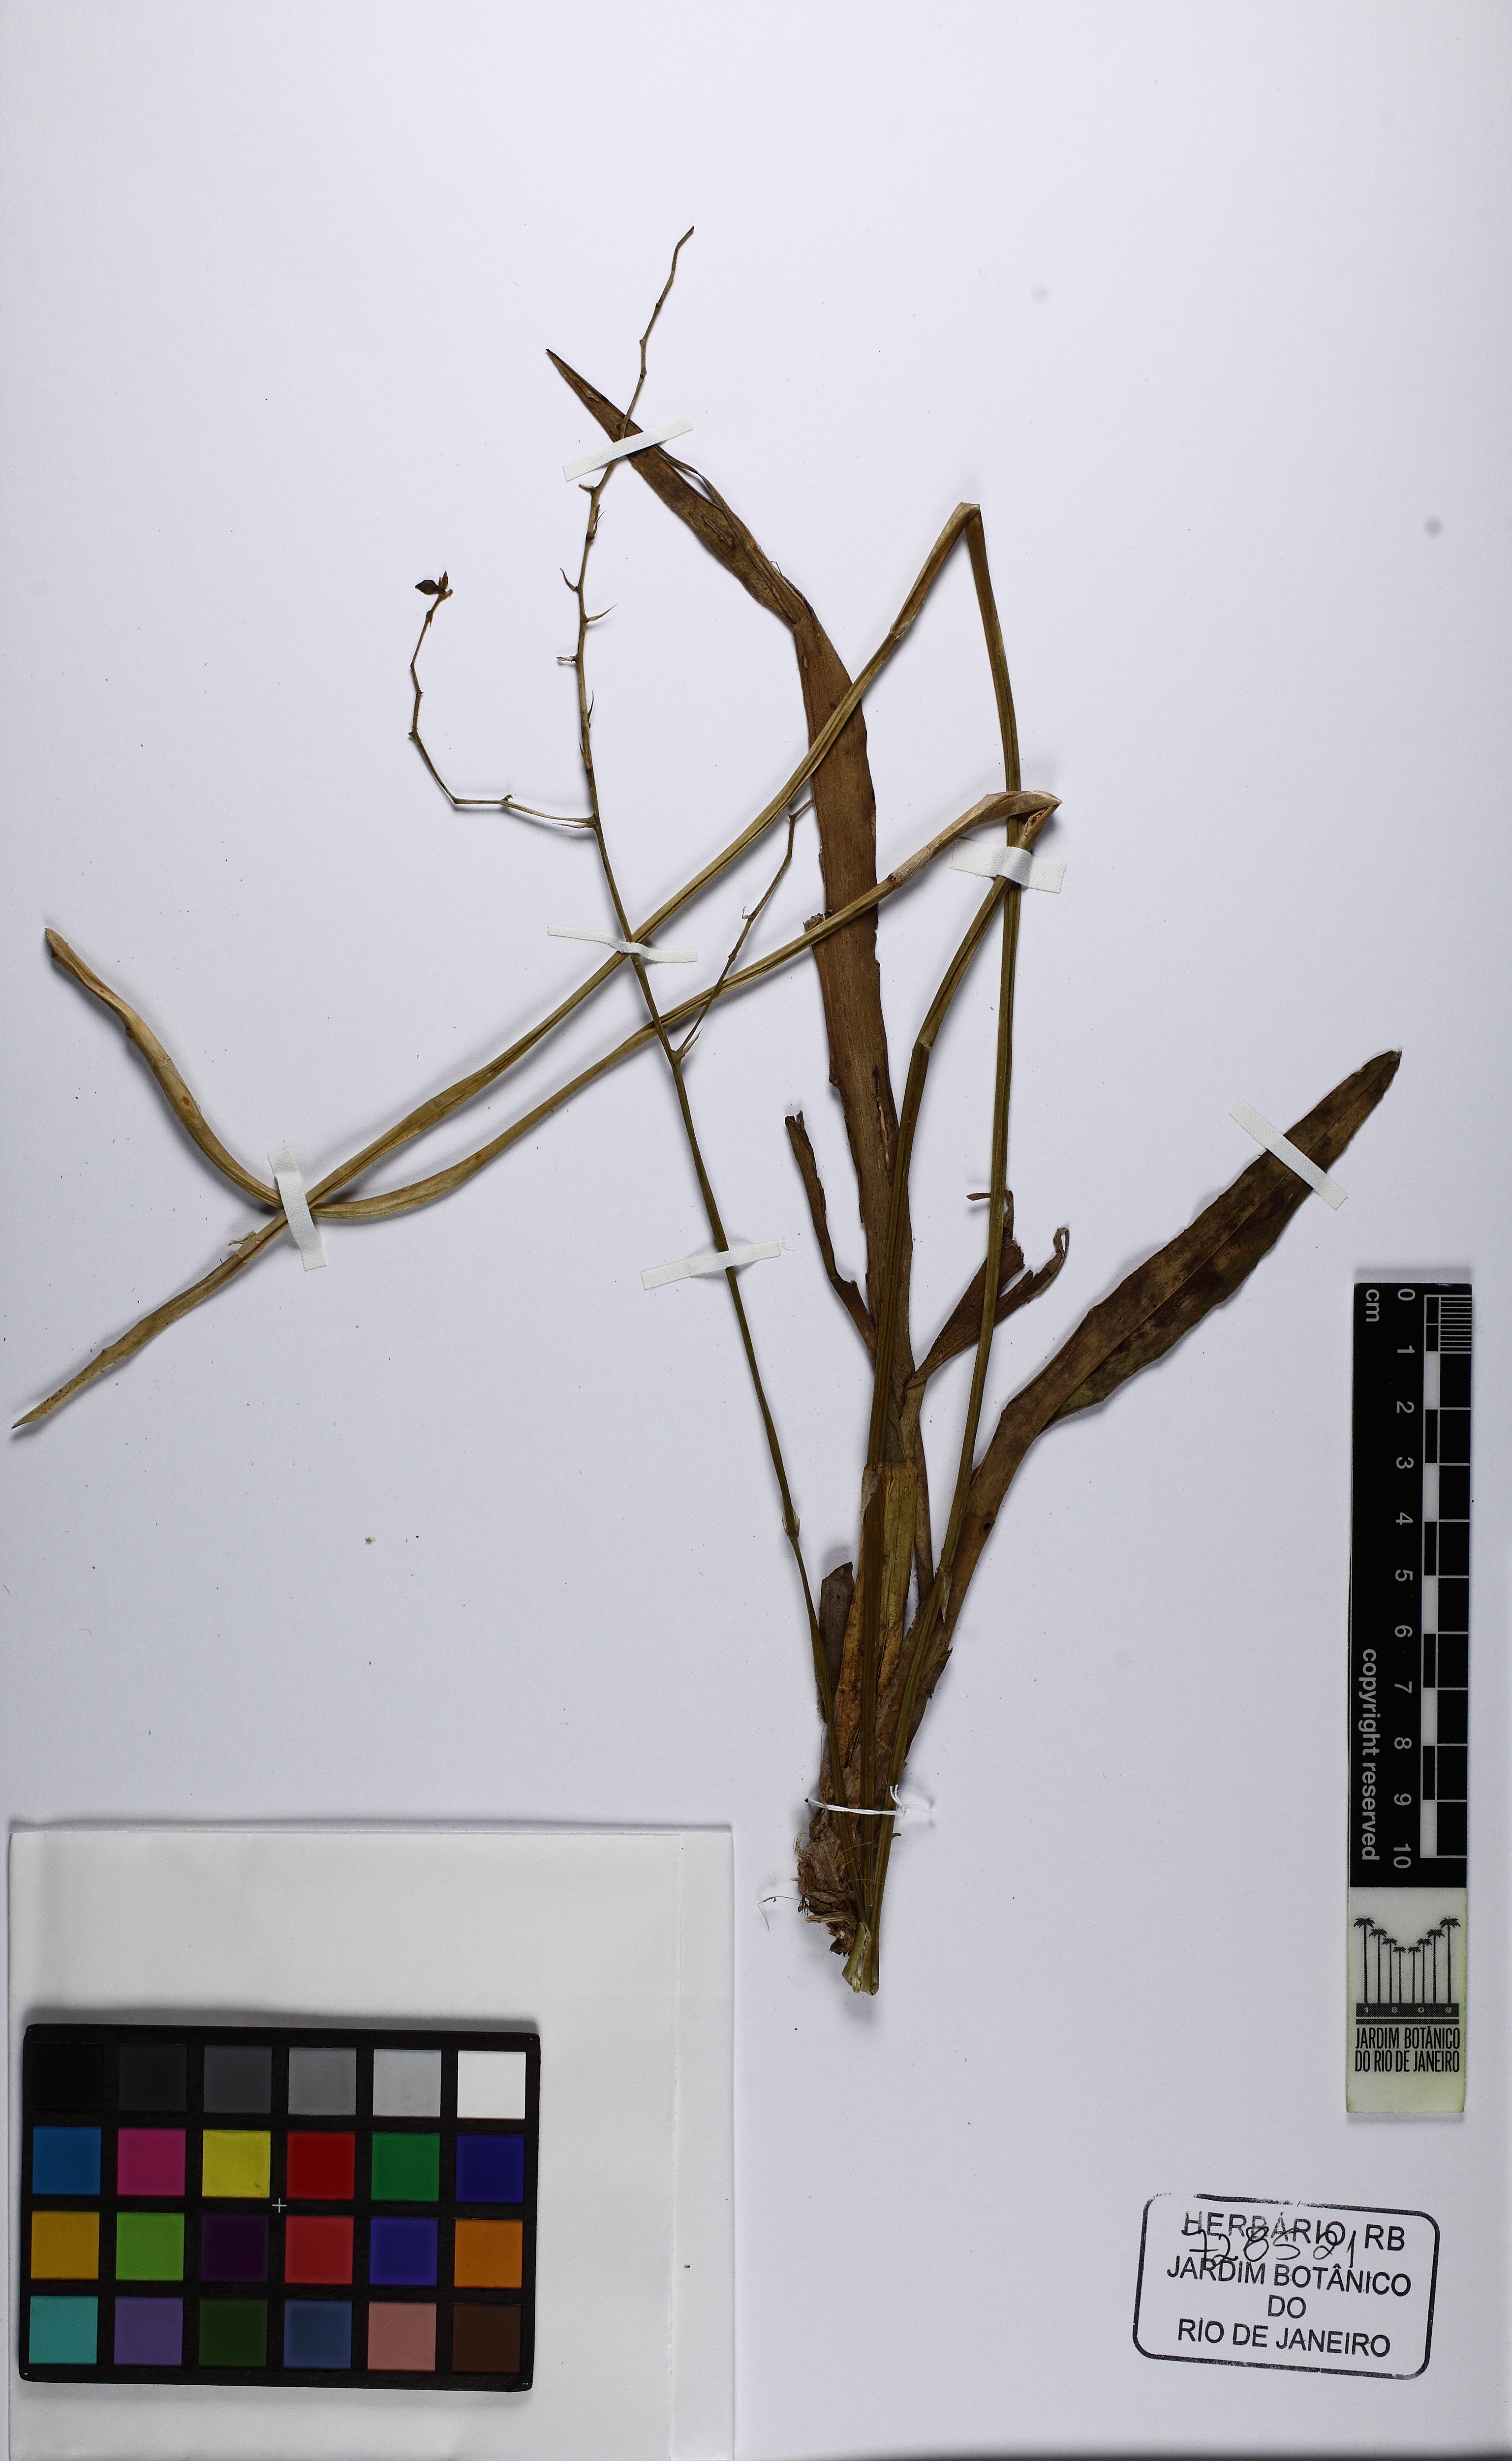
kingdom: Plantae
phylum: Tracheophyta
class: Liliopsida
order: Asparagales
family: Orchidaceae
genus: Gomesa
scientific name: Gomesa ramosa
